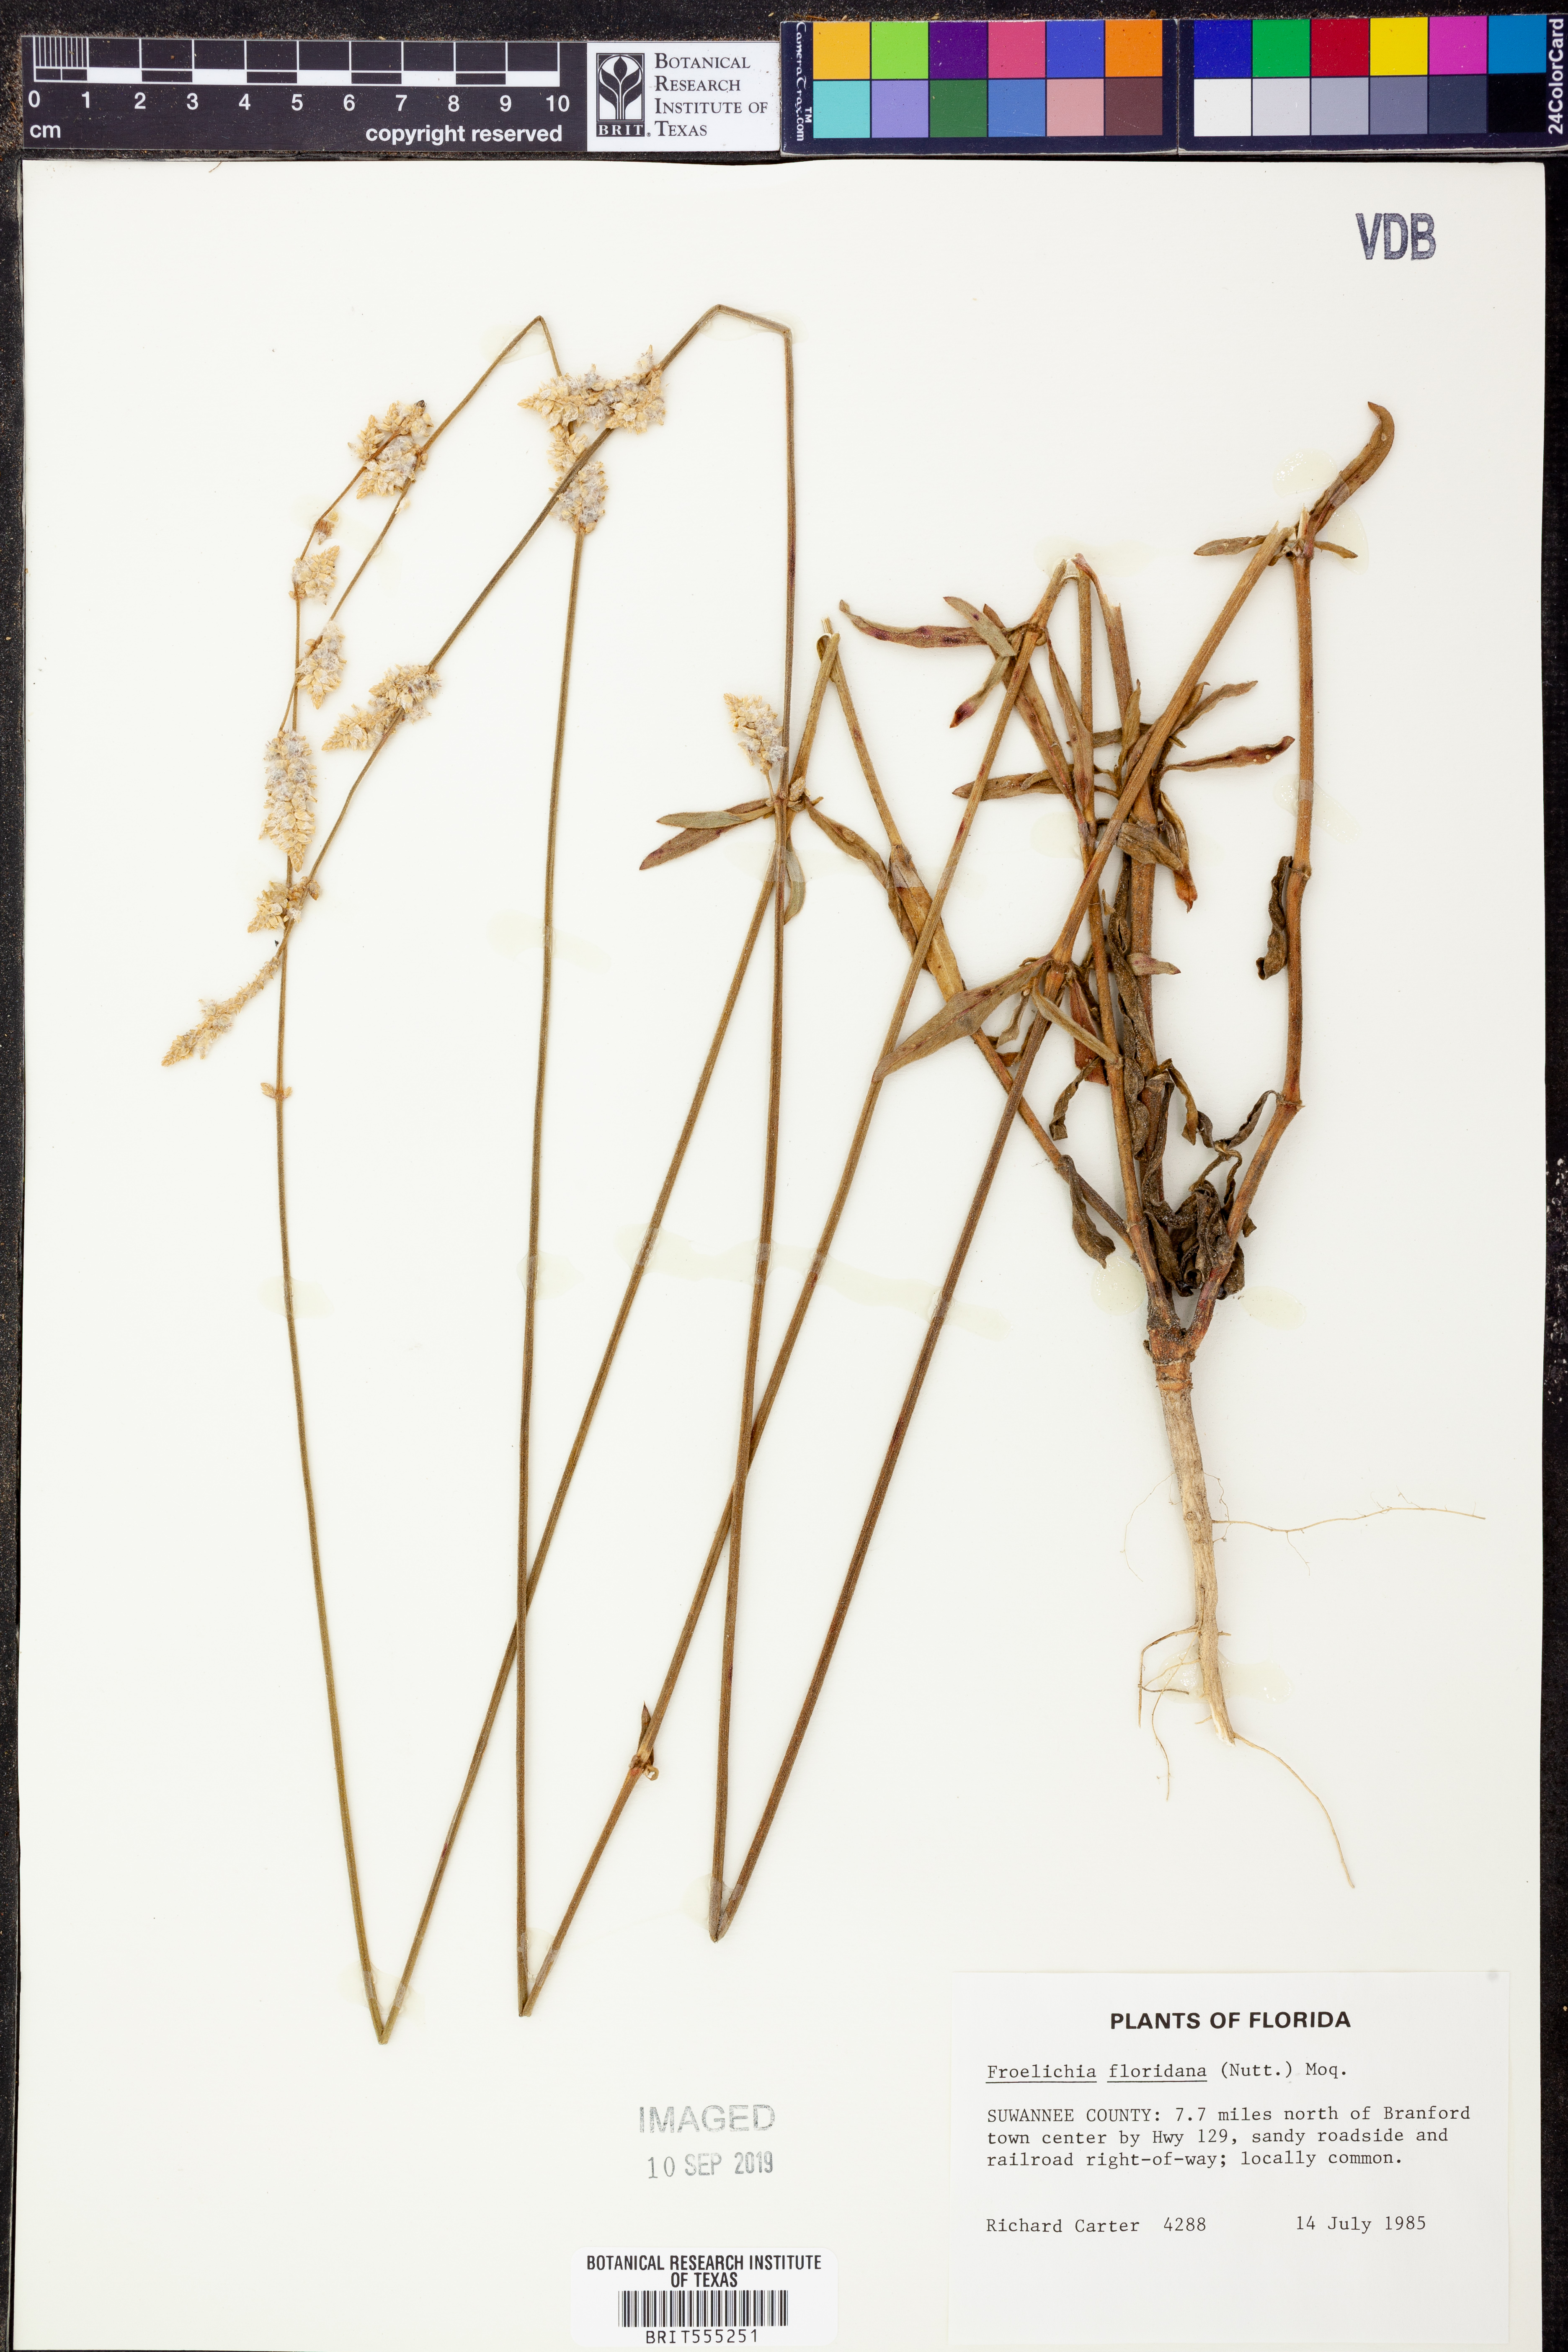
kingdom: Plantae
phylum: Tracheophyta
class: Magnoliopsida
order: Caryophyllales
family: Amaranthaceae
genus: Froelichia
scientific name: Froelichia floridana
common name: Florida snake-cotton
